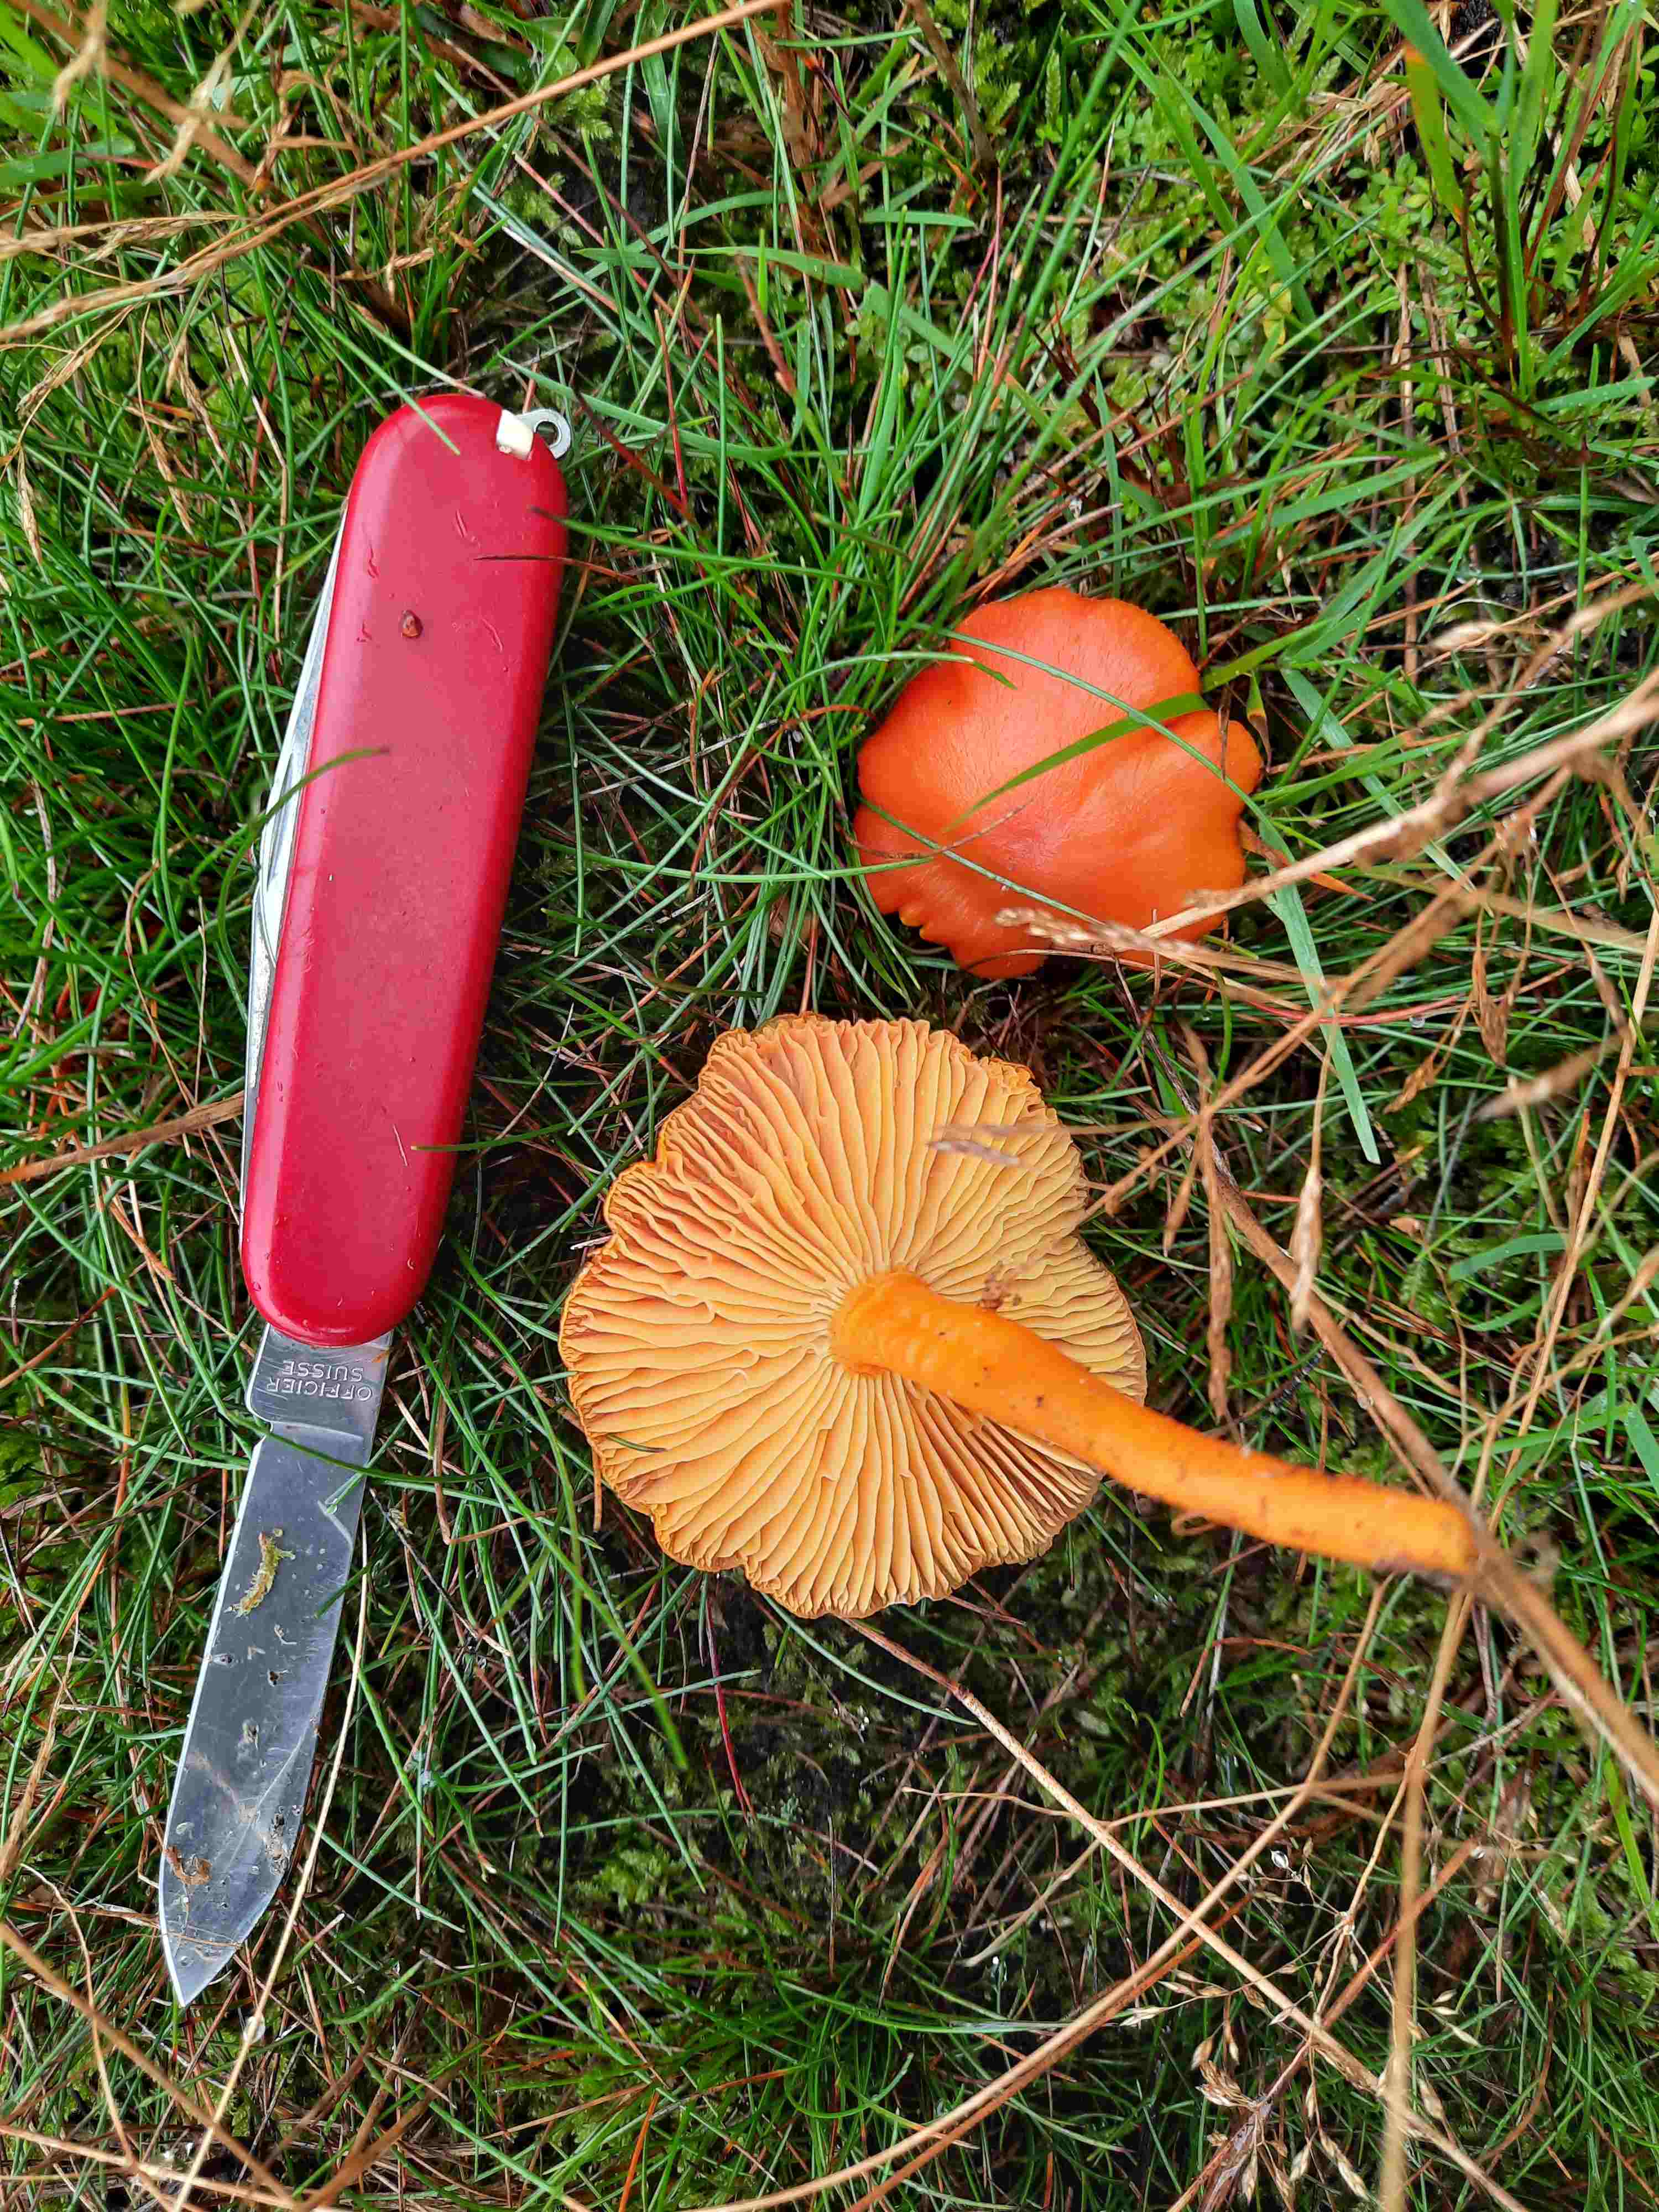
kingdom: Fungi
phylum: Basidiomycota
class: Agaricomycetes
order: Agaricales
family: Hygrophoraceae
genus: Hygrocybe
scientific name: Hygrocybe miniata
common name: mønje-vokshat
